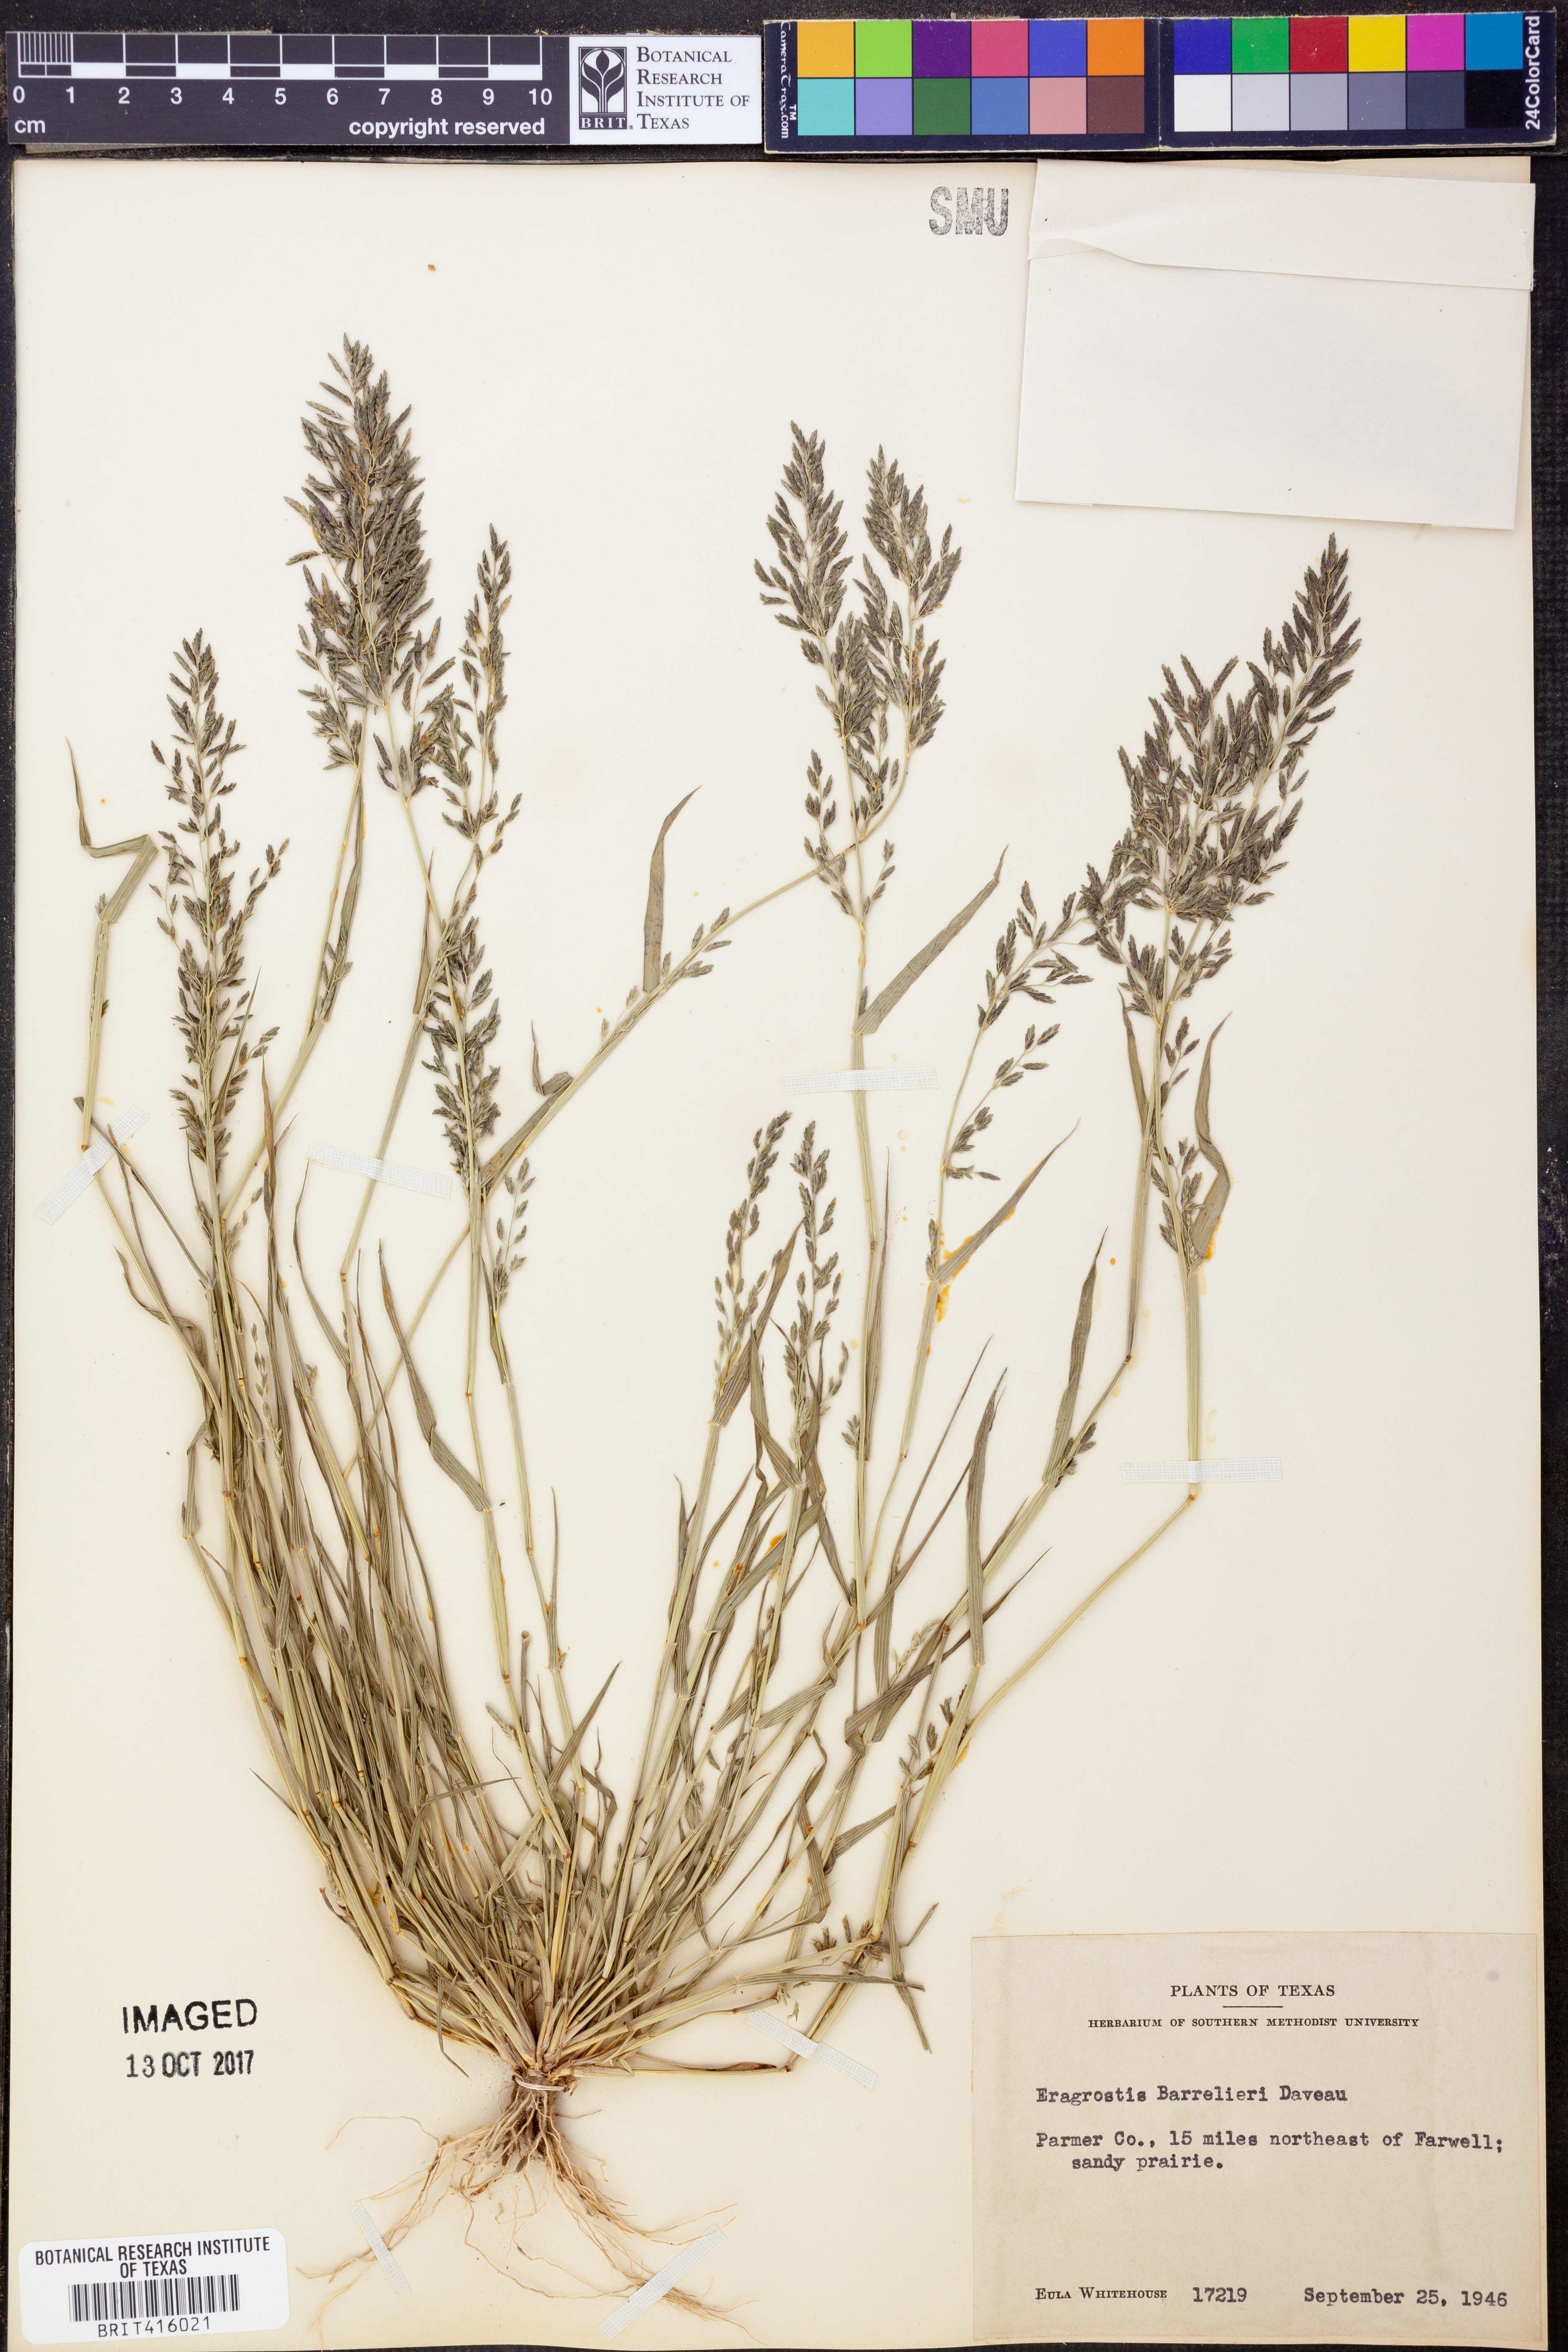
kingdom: Plantae
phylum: Tracheophyta
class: Liliopsida
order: Poales
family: Poaceae
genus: Eragrostis
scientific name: Eragrostis barrelieri
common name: Mediterranean lovegrass
